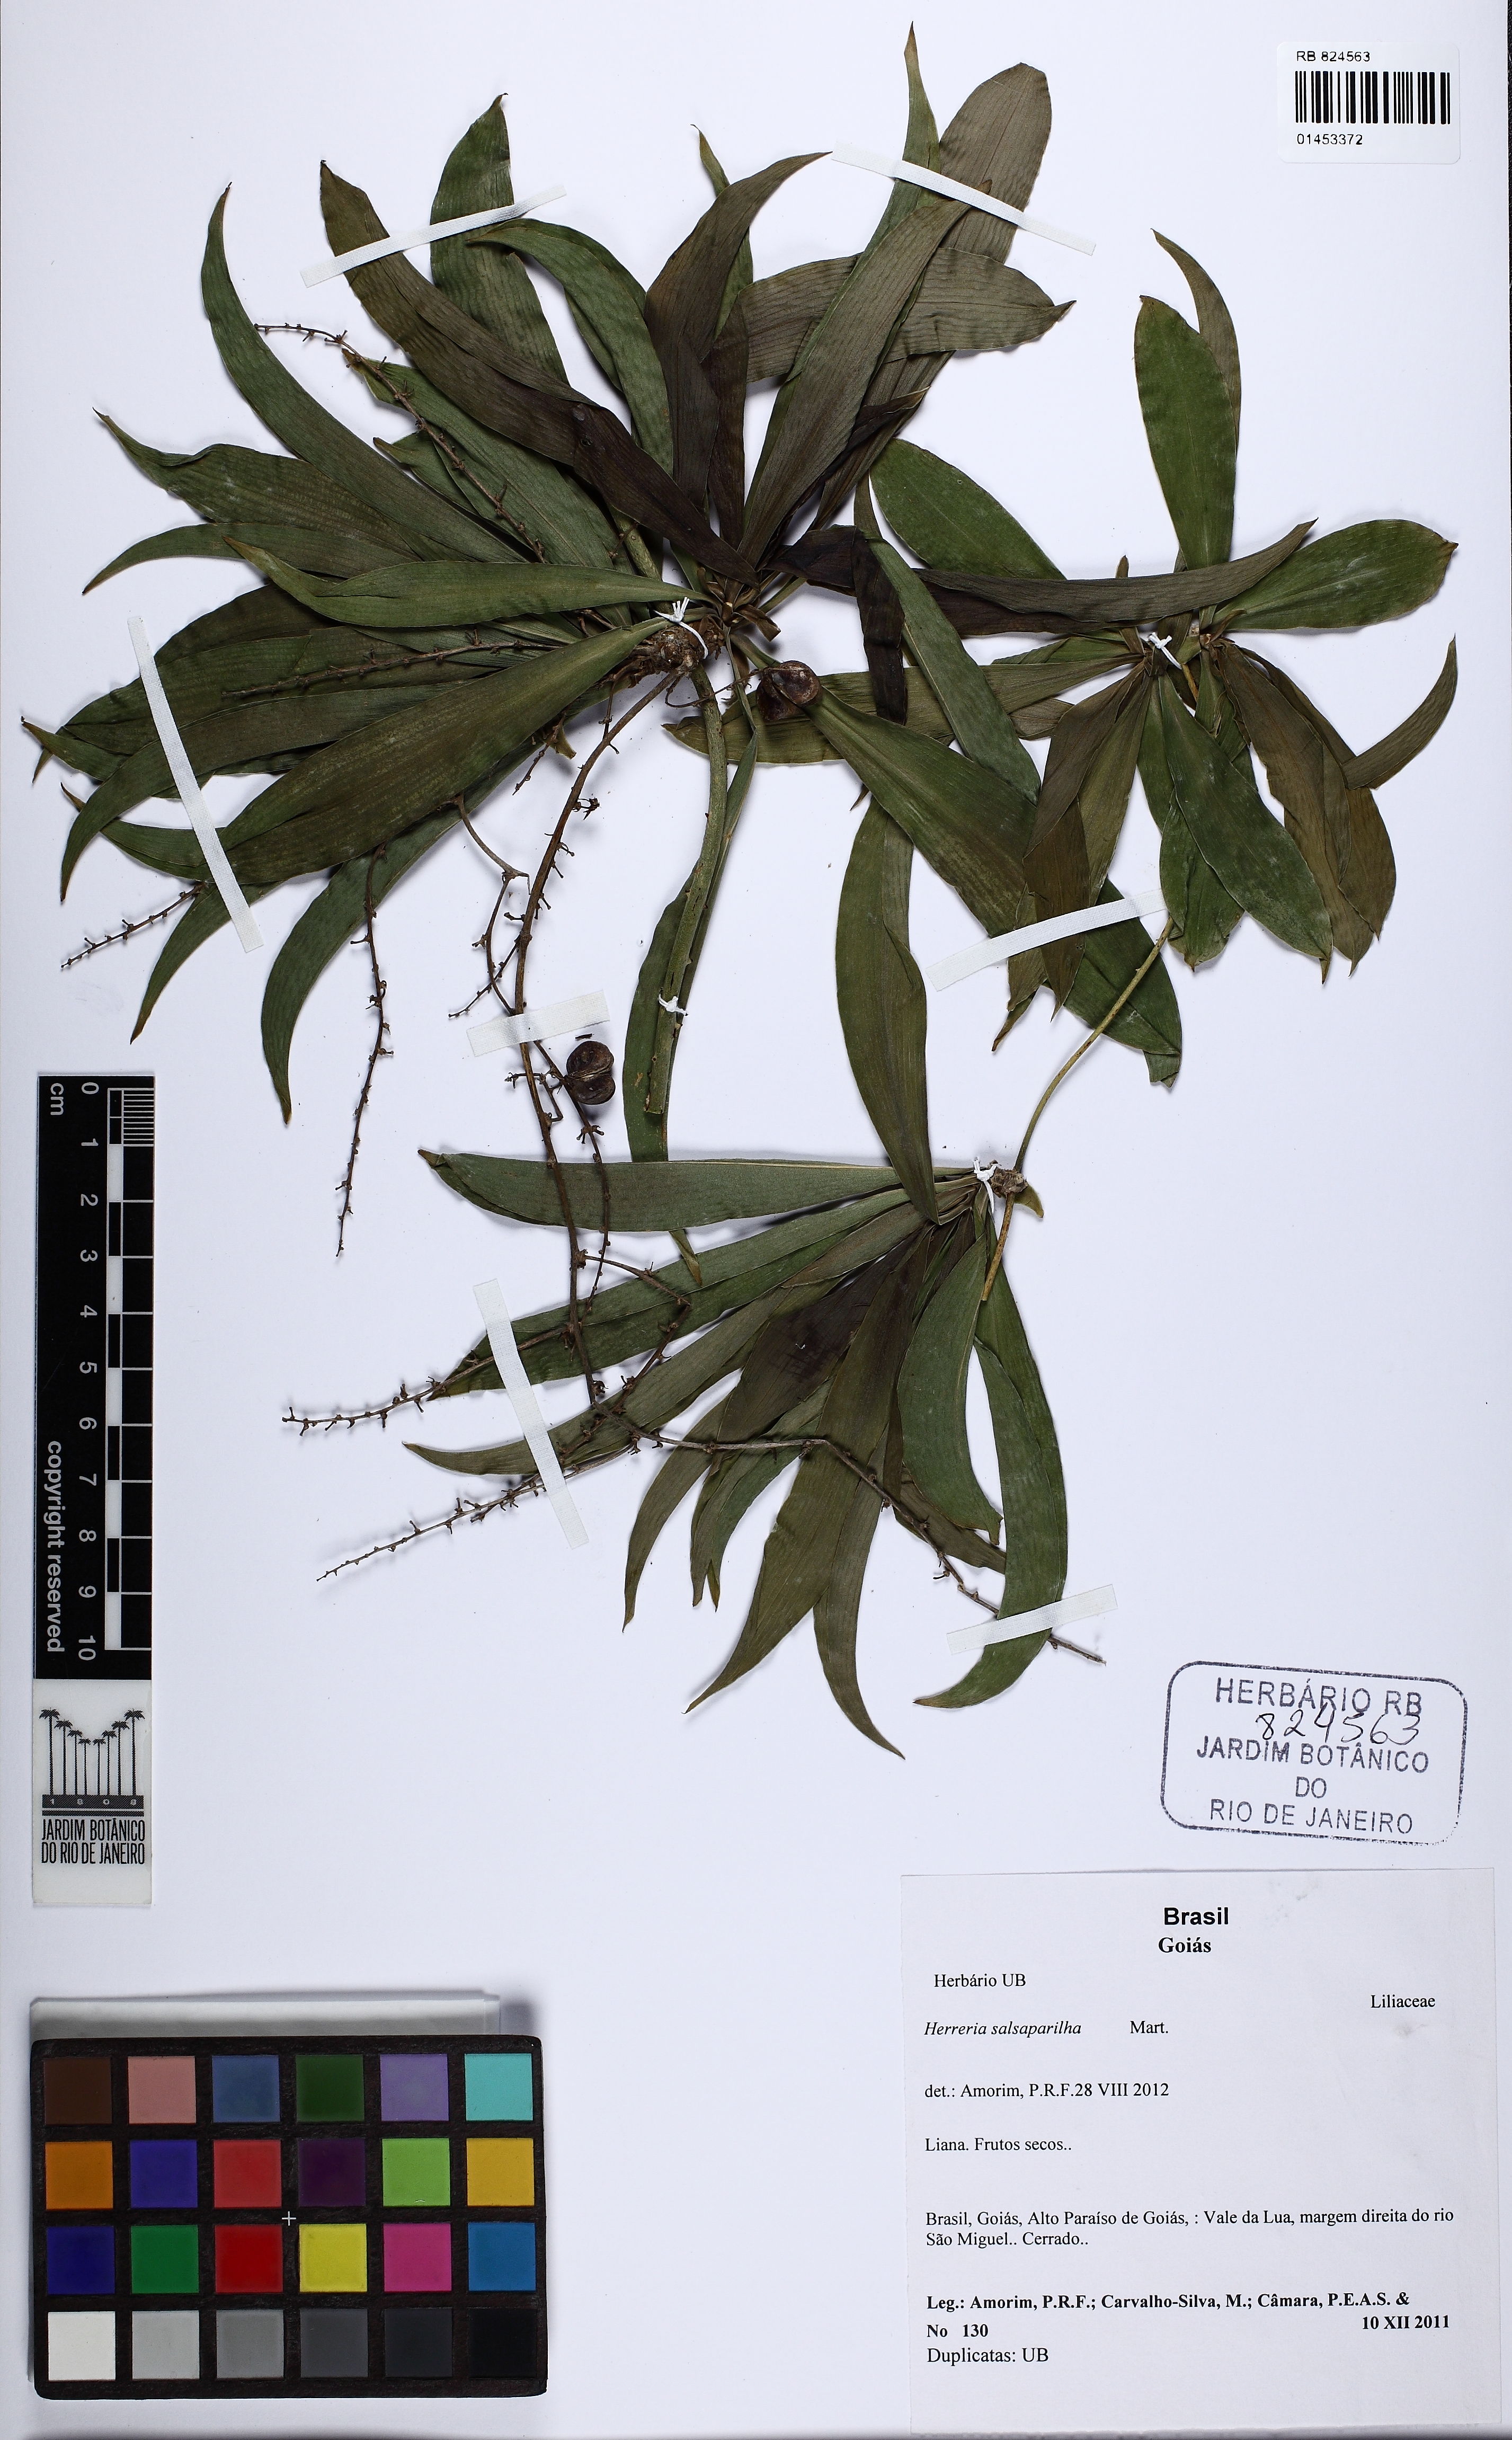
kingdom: Plantae
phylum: Tracheophyta
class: Liliopsida
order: Asparagales
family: Asparagaceae
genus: Herreria
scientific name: Herreria salsaparilha
